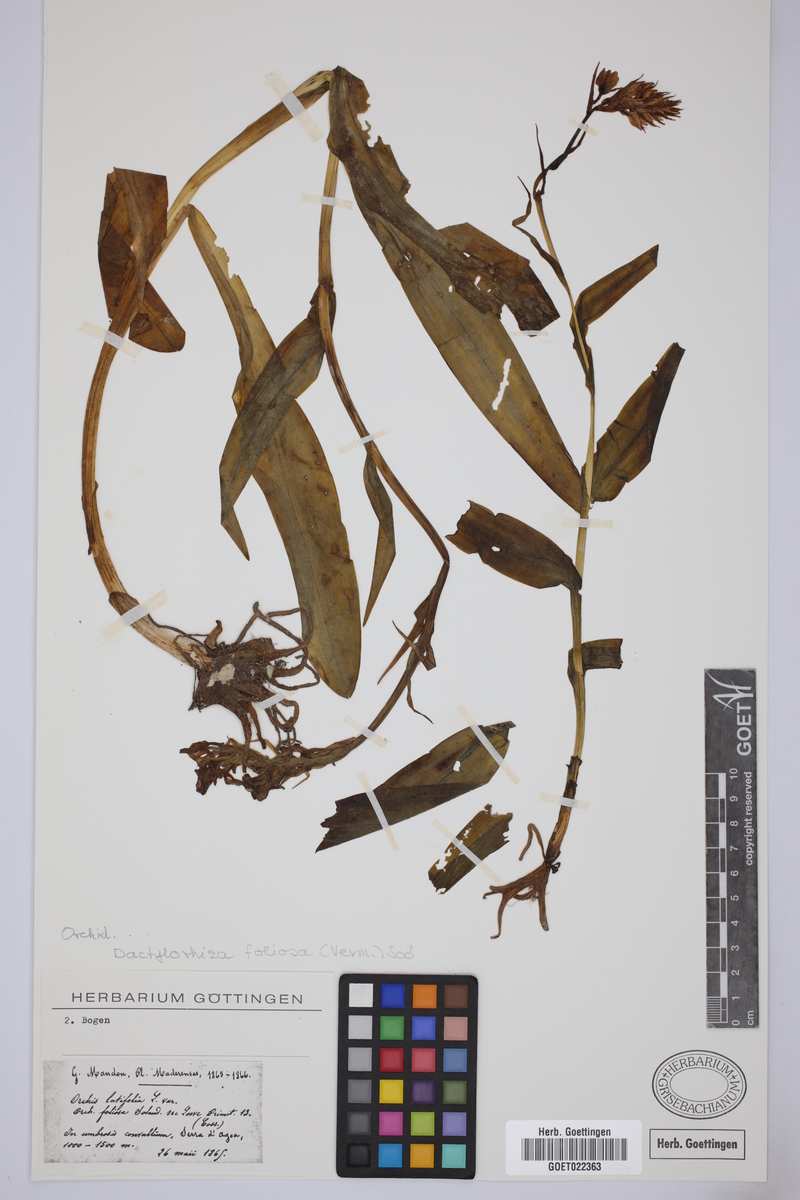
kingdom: Plantae
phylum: Tracheophyta
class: Liliopsida
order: Asparagales
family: Orchidaceae
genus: Dactylorhiza
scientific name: Dactylorhiza foliosa
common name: Richly-leaved dactylorhiza
